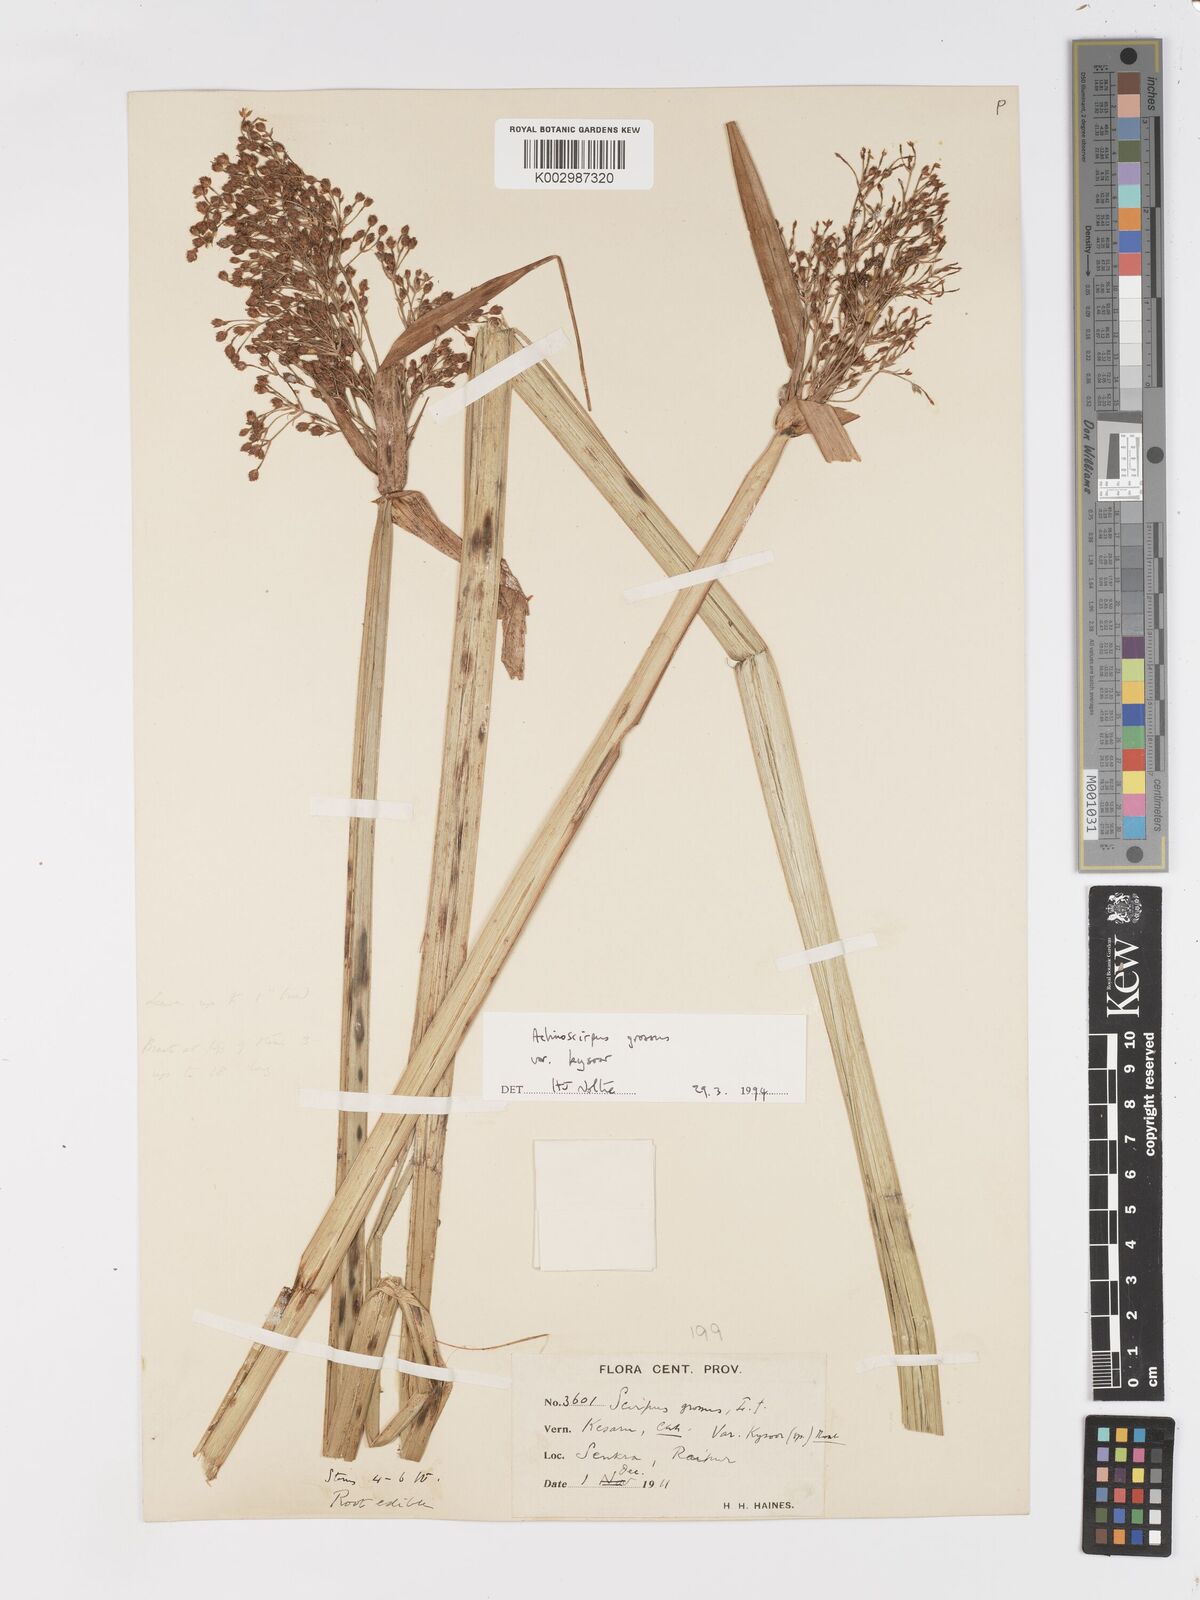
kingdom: Plantae
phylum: Tracheophyta
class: Liliopsida
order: Poales
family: Cyperaceae
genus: Actinoscirpus
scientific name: Actinoscirpus grossus
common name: Giant bur rush
